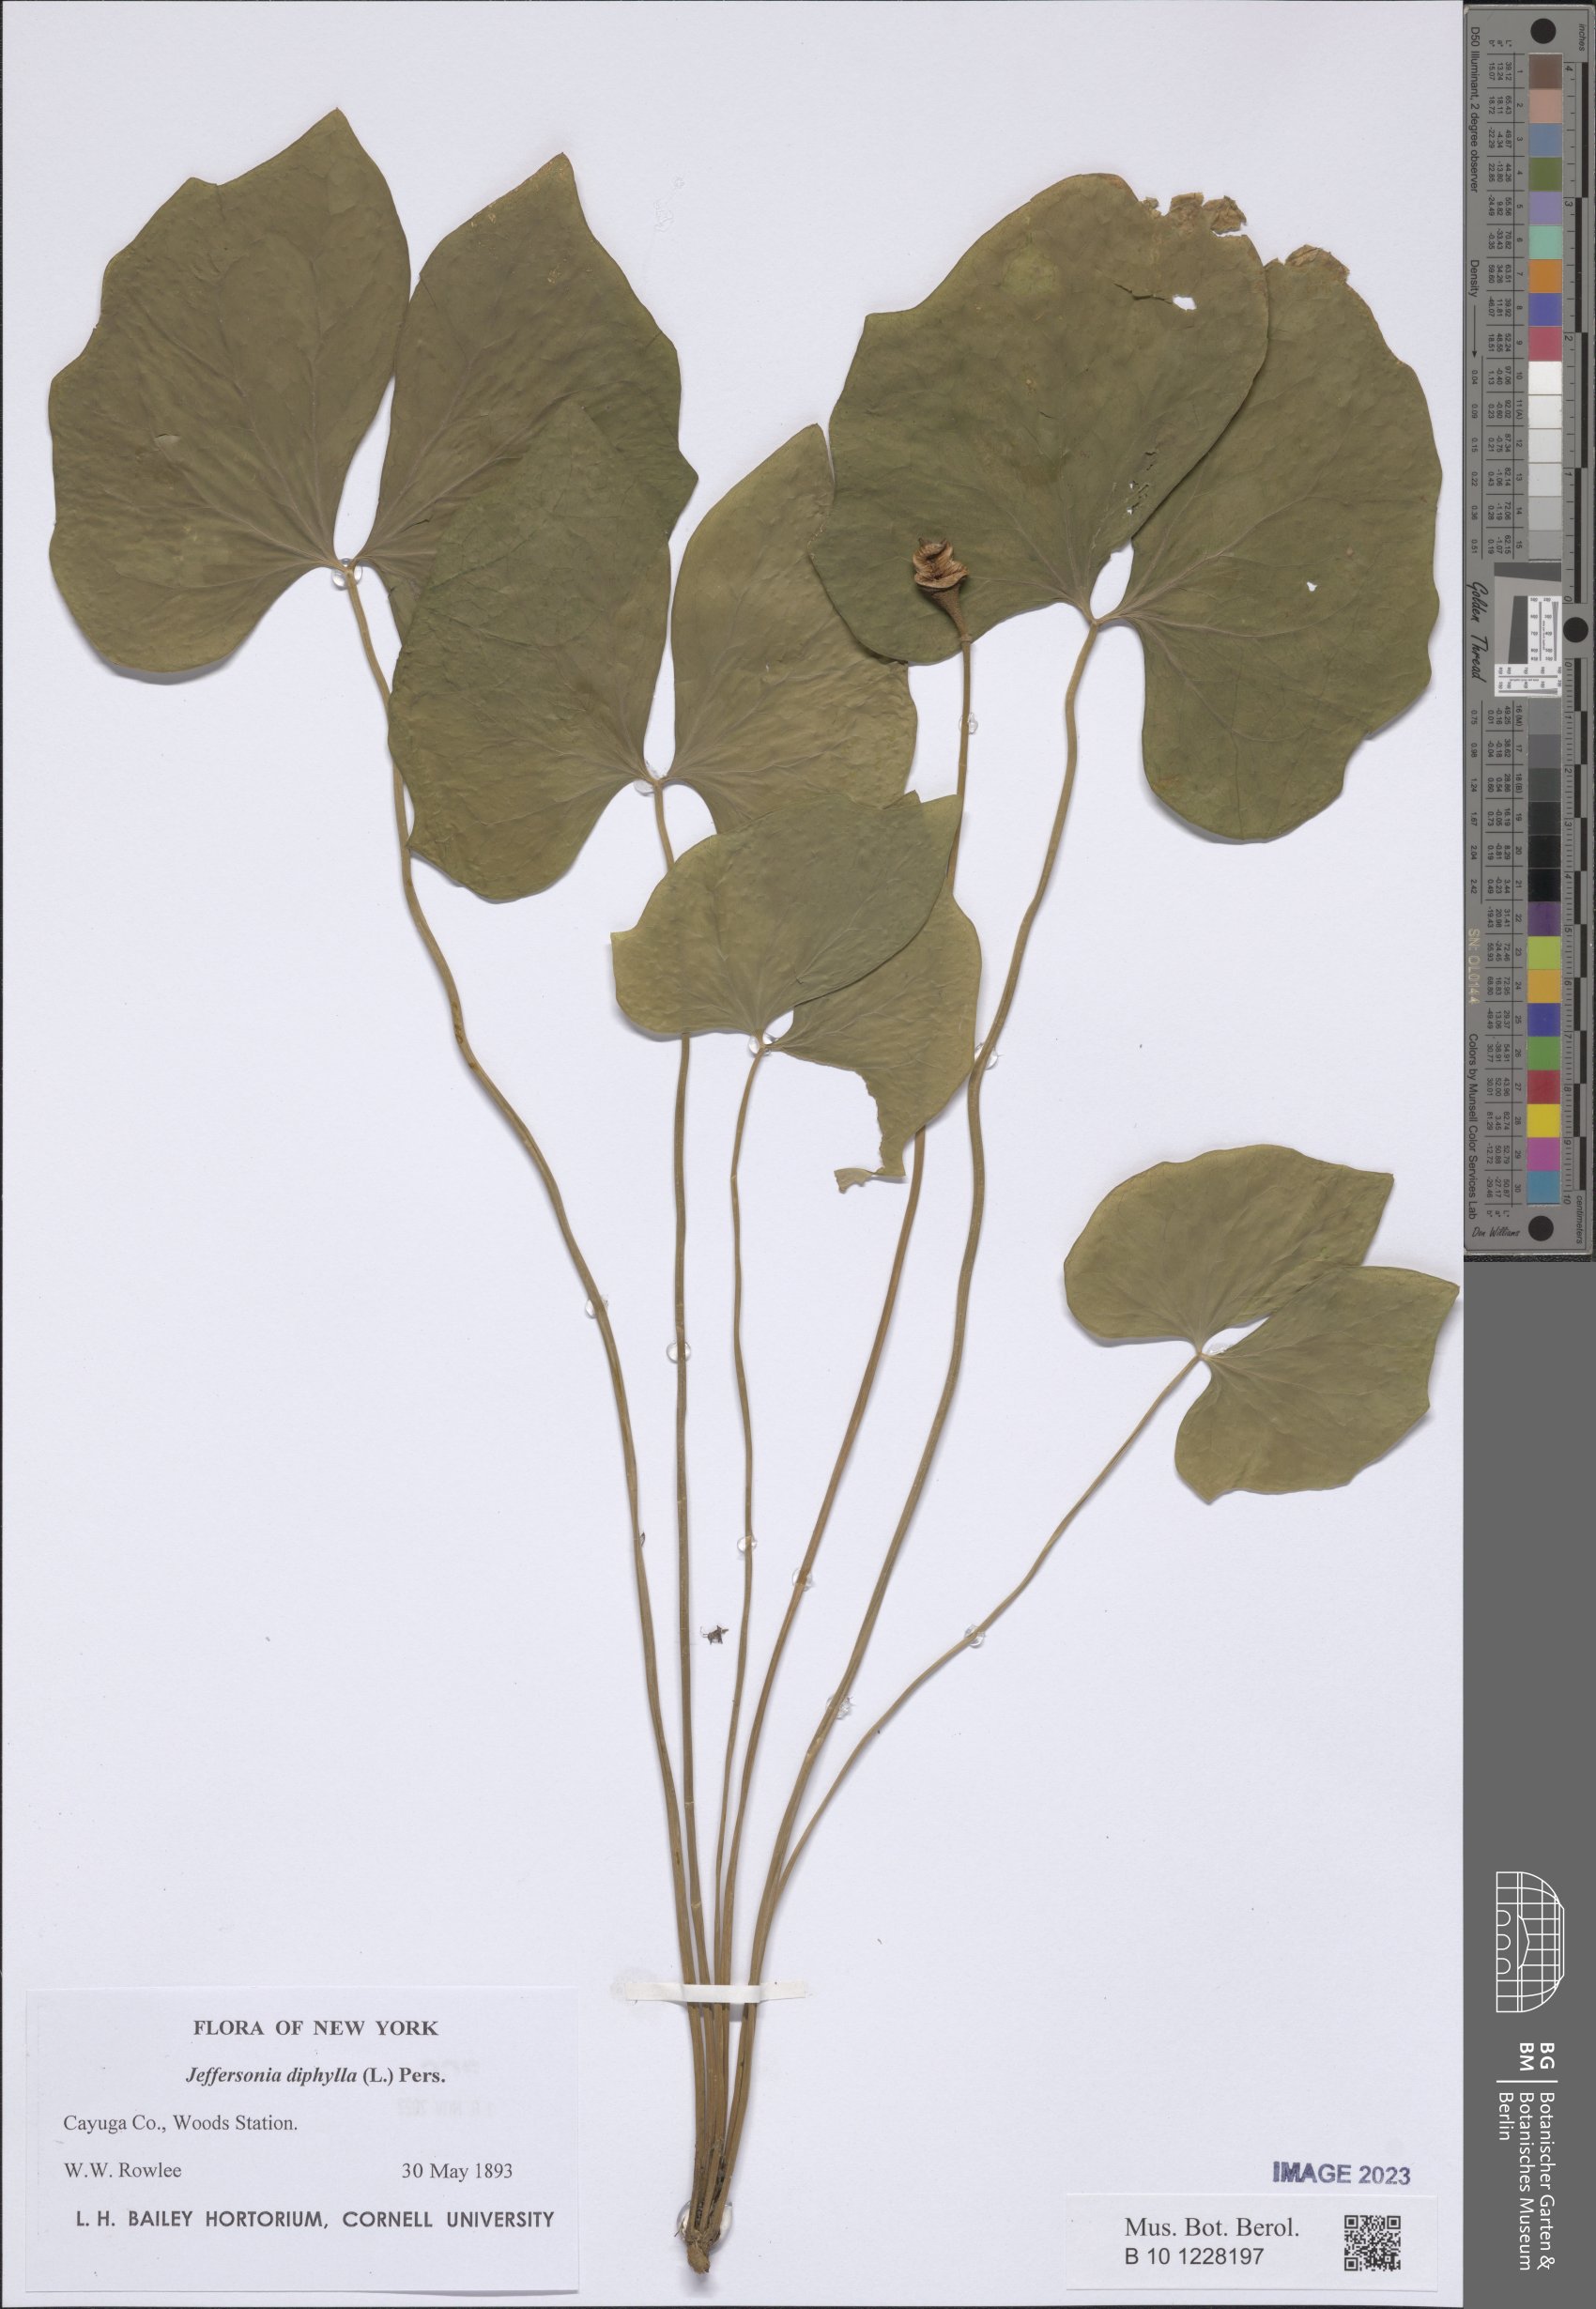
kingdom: Plantae
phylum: Tracheophyta
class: Magnoliopsida
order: Ranunculales
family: Berberidaceae
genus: Jeffersonia
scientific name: Jeffersonia diphylla
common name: Rheumatism-root
